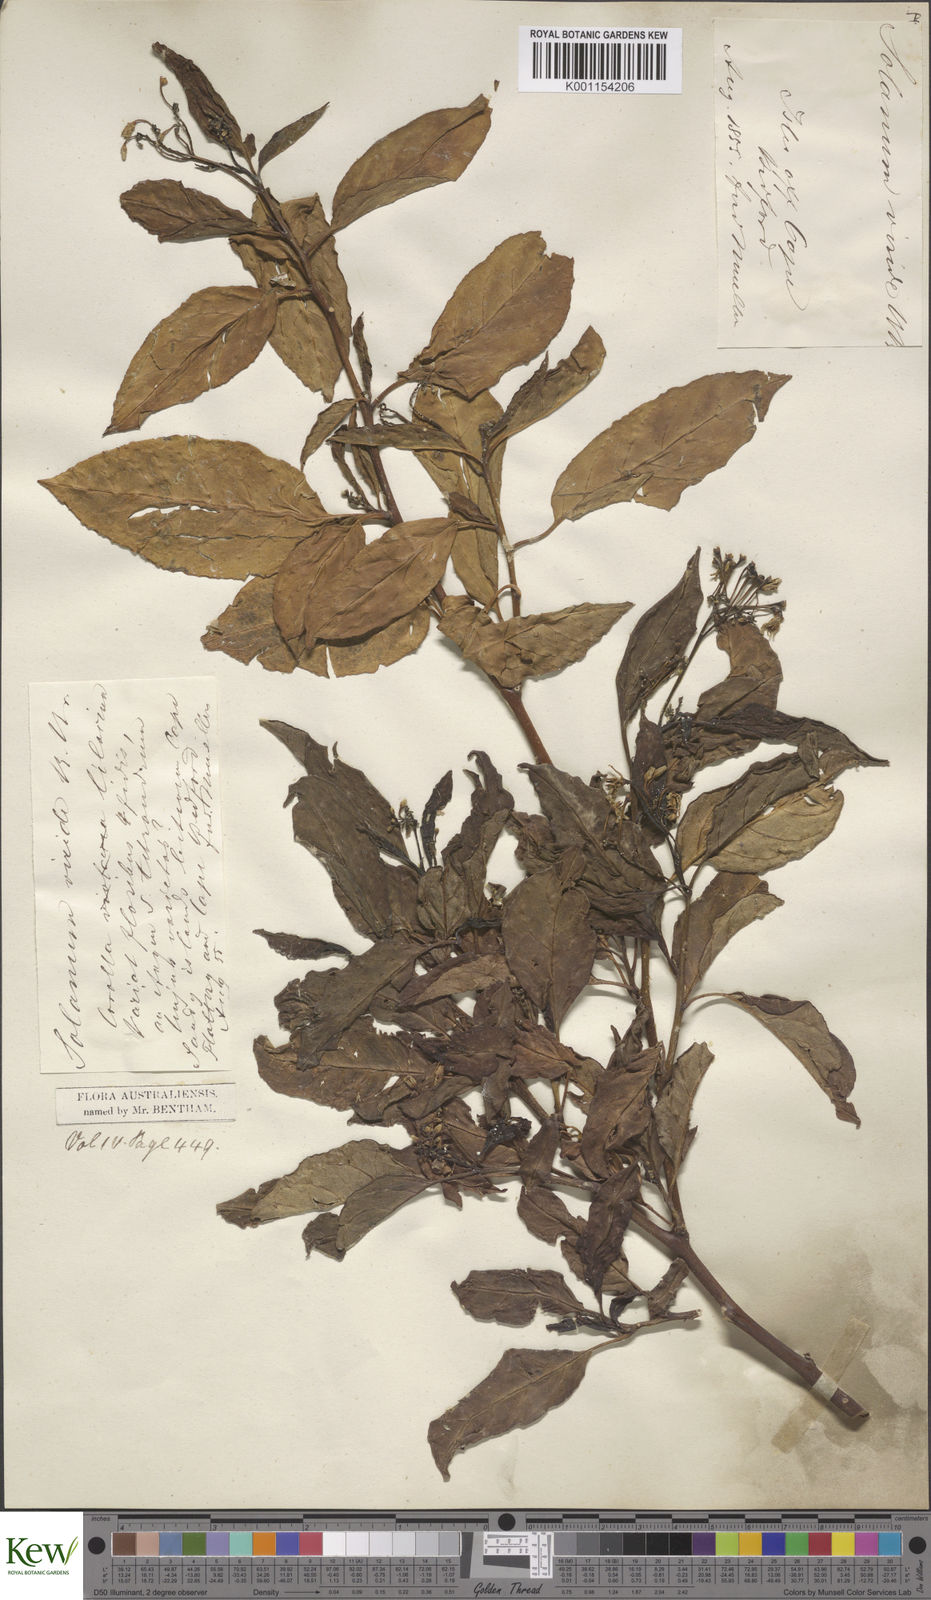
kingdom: Plantae
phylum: Tracheophyta
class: Magnoliopsida
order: Solanales
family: Solanaceae
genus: Solanum
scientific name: Solanum viridifolium
